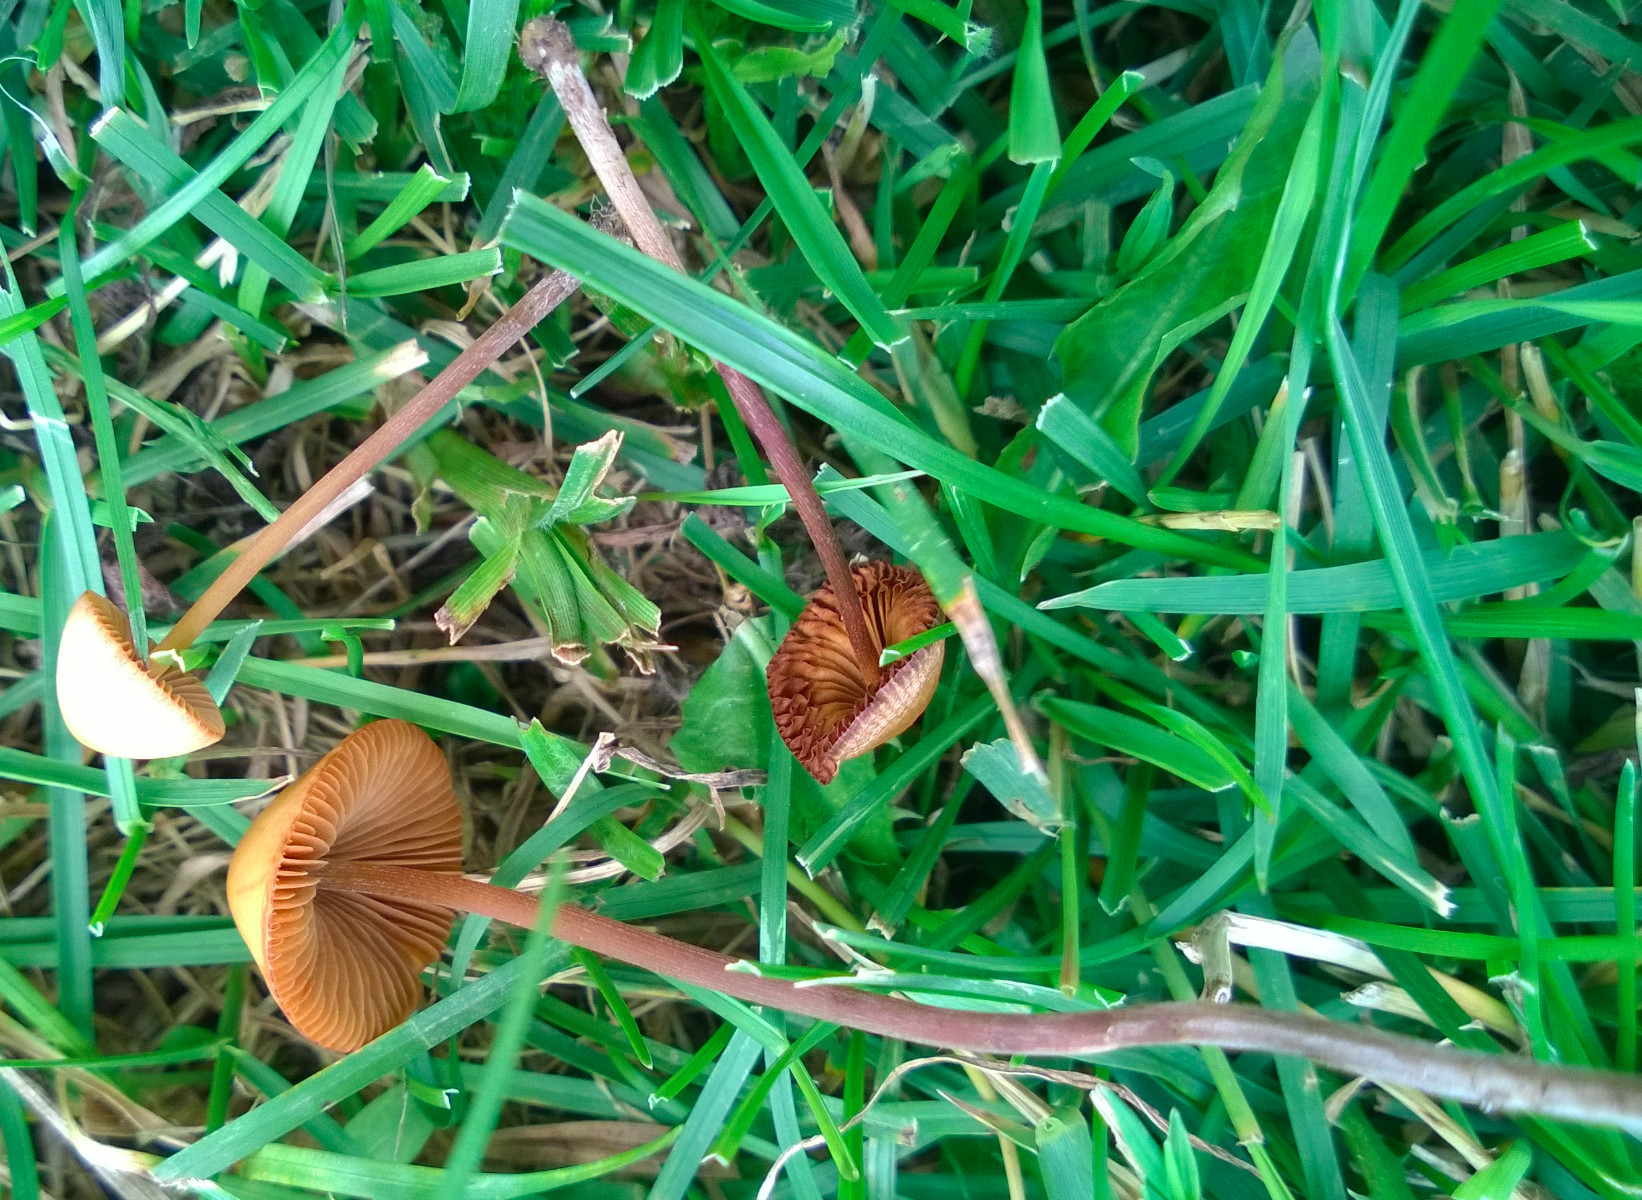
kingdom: Fungi
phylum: Basidiomycota
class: Agaricomycetes
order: Agaricales
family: Bolbitiaceae
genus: Conocybe
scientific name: Conocybe
